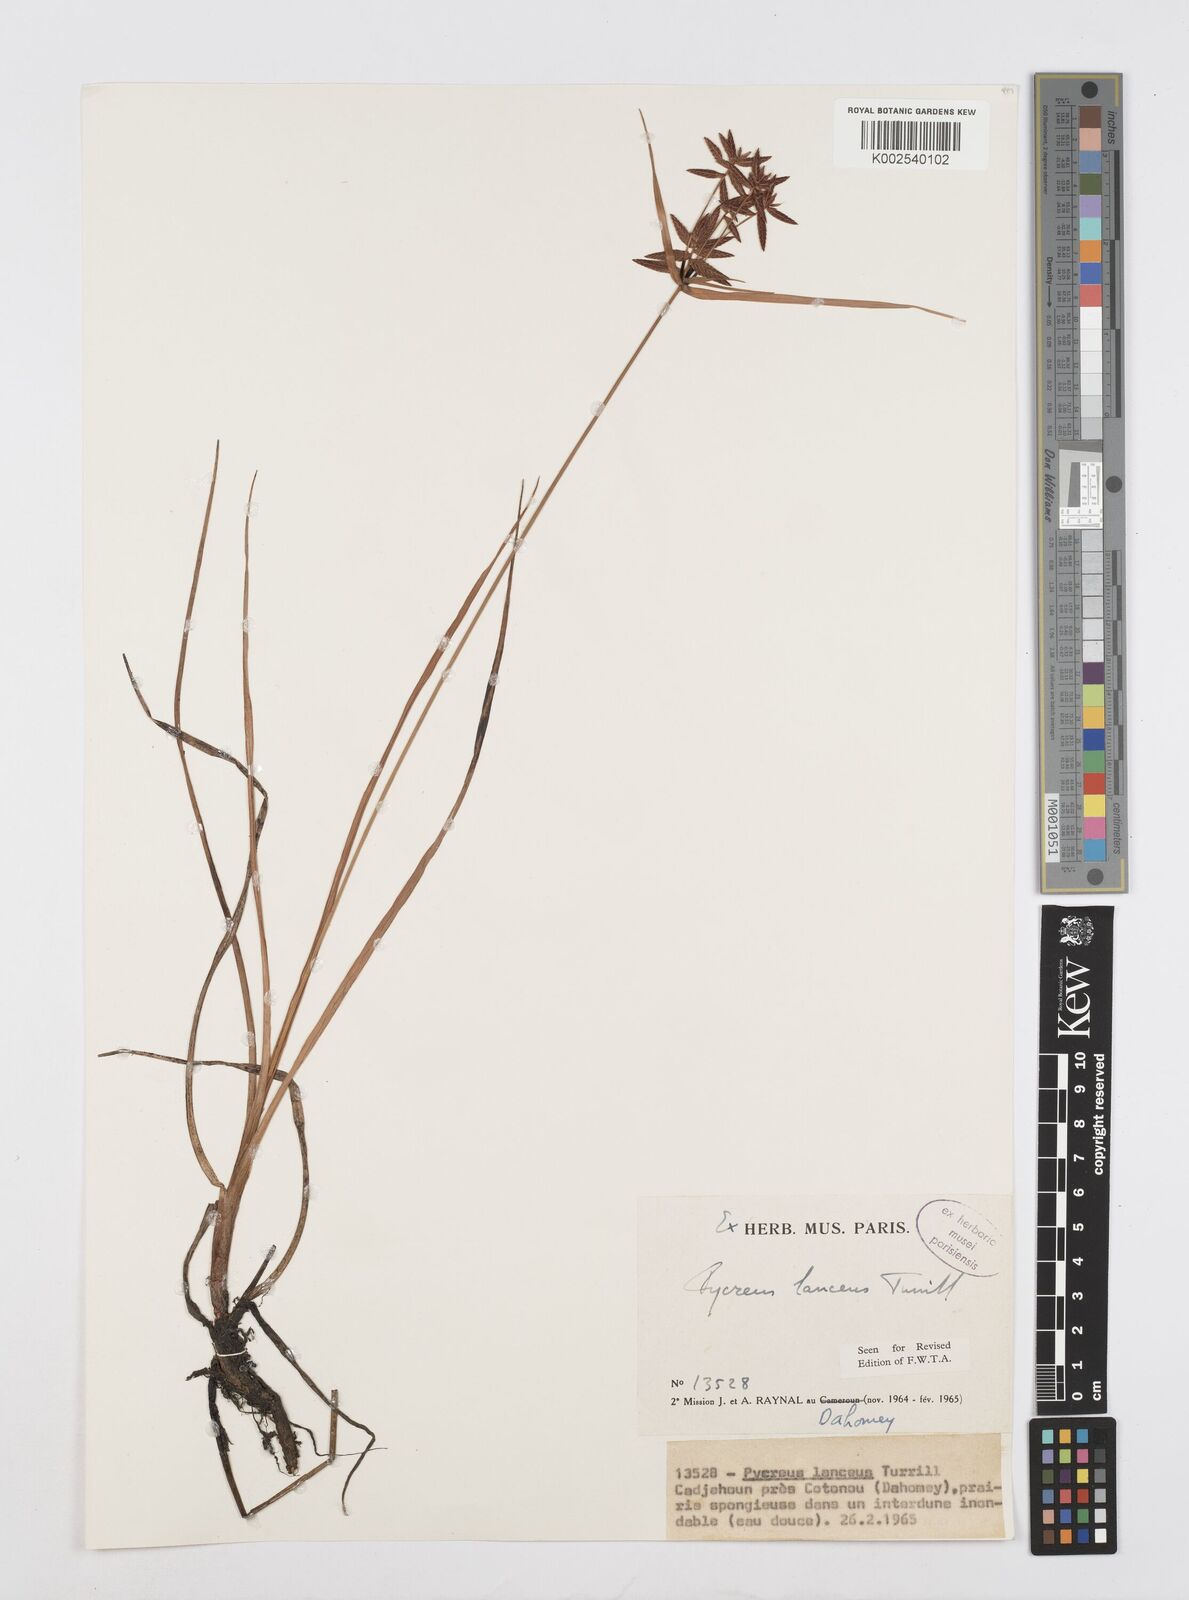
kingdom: Plantae
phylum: Tracheophyta
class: Liliopsida
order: Poales
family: Cyperaceae
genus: Cyperus
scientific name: Cyperus nitidus
